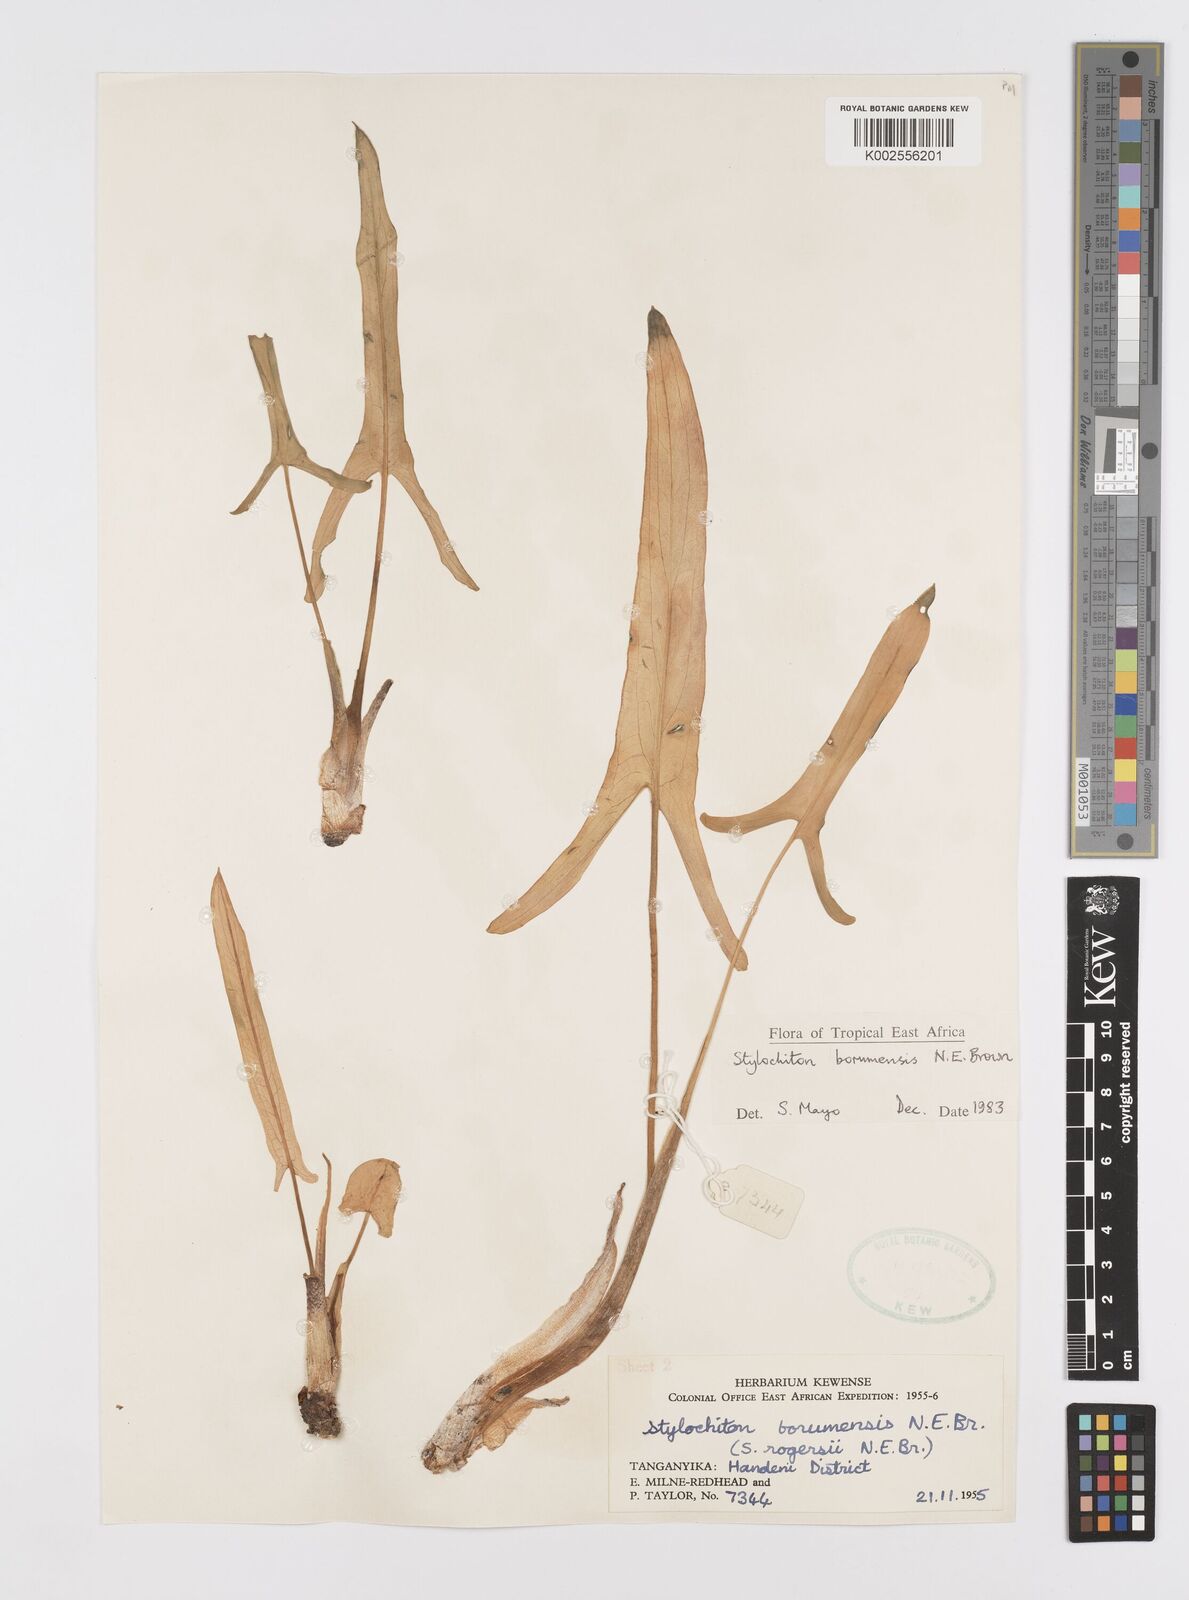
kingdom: Plantae
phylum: Tracheophyta
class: Liliopsida
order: Alismatales
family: Araceae
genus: Stylochaeton
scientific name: Stylochaeton borumense
